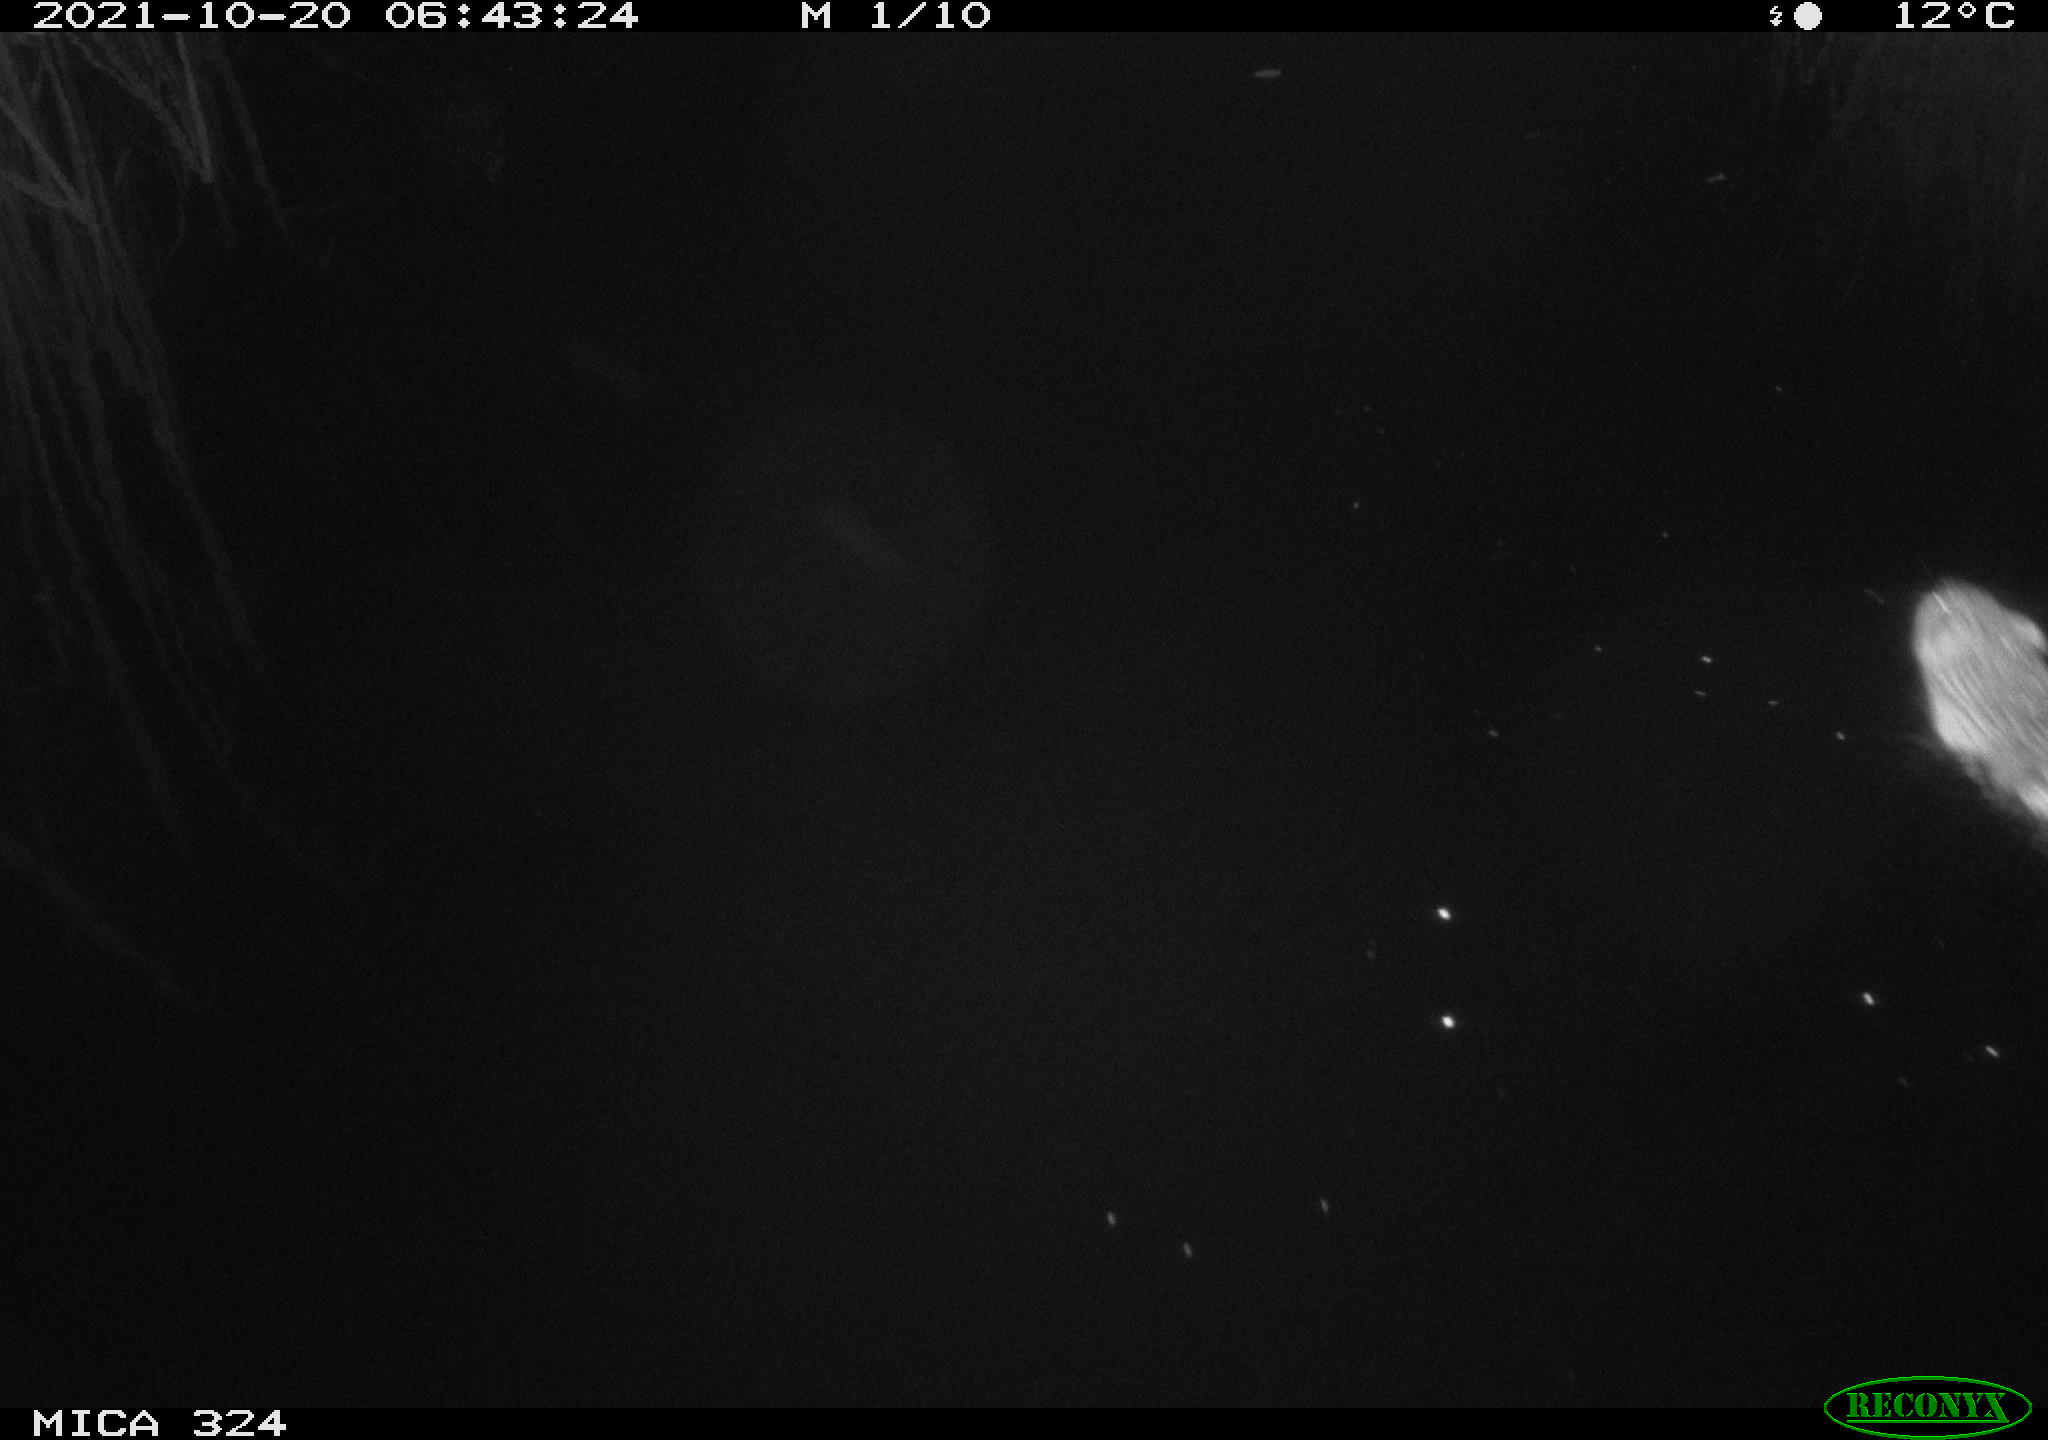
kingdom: Animalia
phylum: Chordata
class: Mammalia
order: Rodentia
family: Cricetidae
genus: Ondatra
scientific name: Ondatra zibethicus
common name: Muskrat
